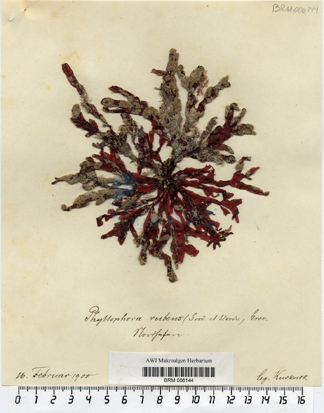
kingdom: Plantae
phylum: Rhodophyta
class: Florideophyceae
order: Gigartinales
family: Phyllophoraceae
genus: Phyllophora
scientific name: Phyllophora crispa
